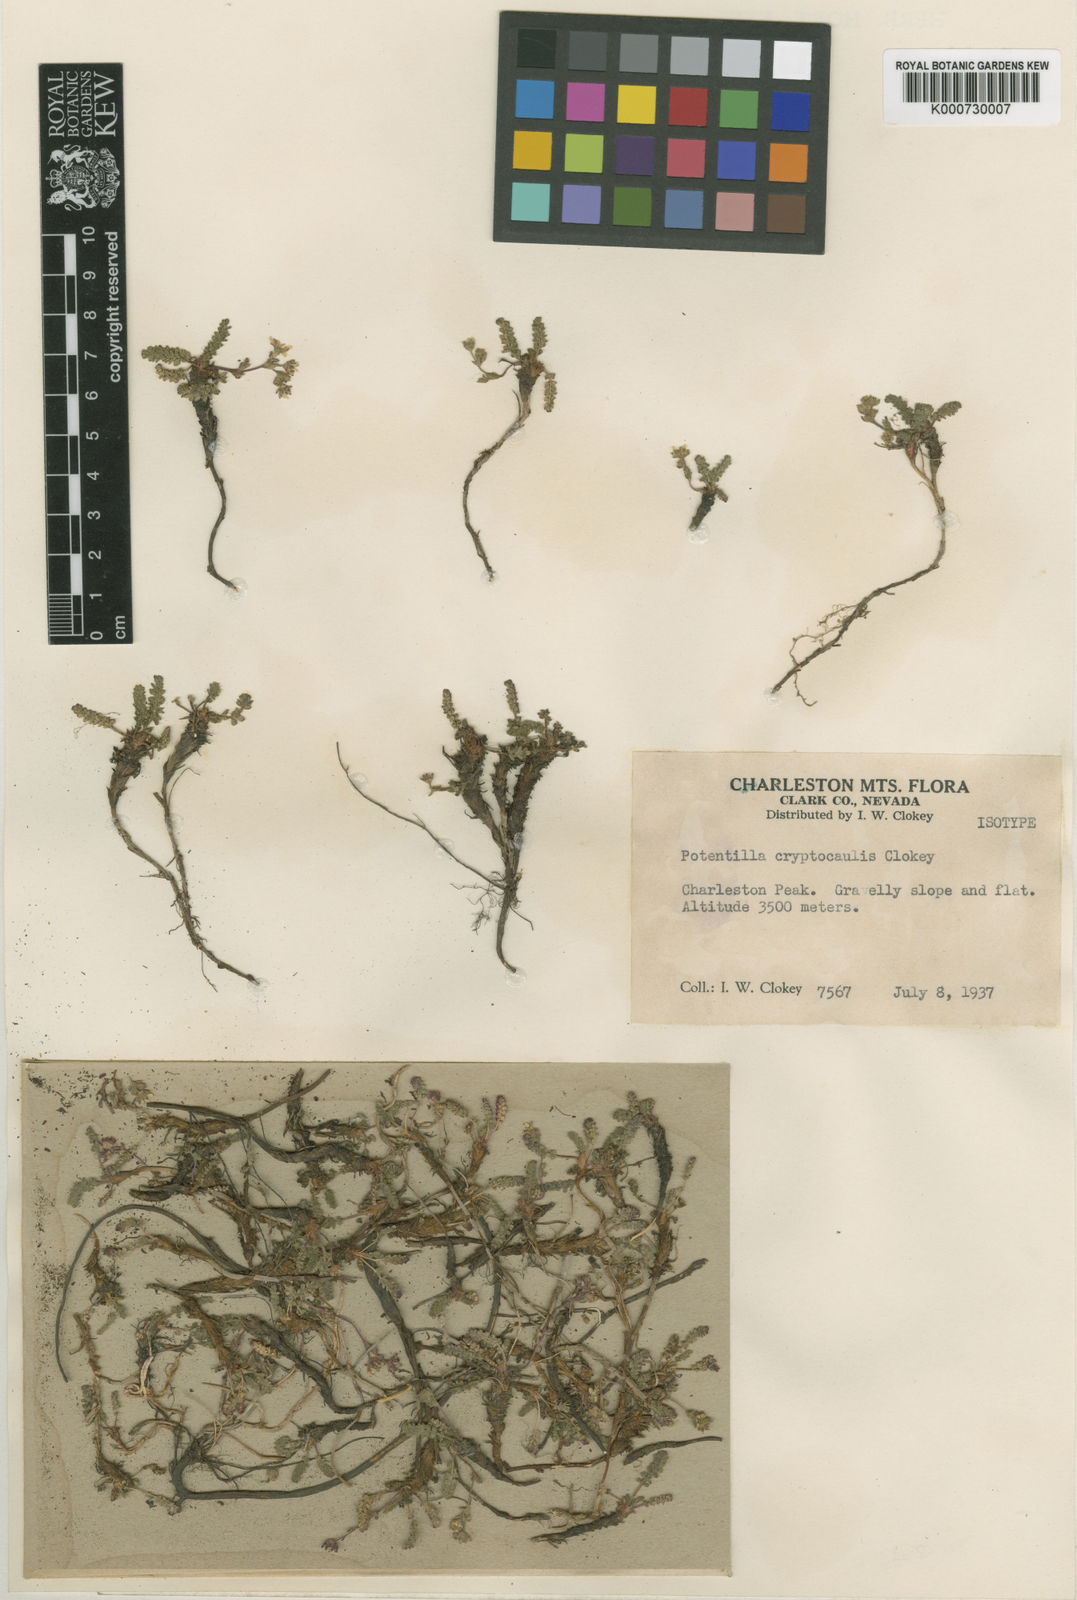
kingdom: Plantae
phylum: Tracheophyta
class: Magnoliopsida
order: Rosales
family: Rosaceae
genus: Potentilla
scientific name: Potentilla cryptocaulis
